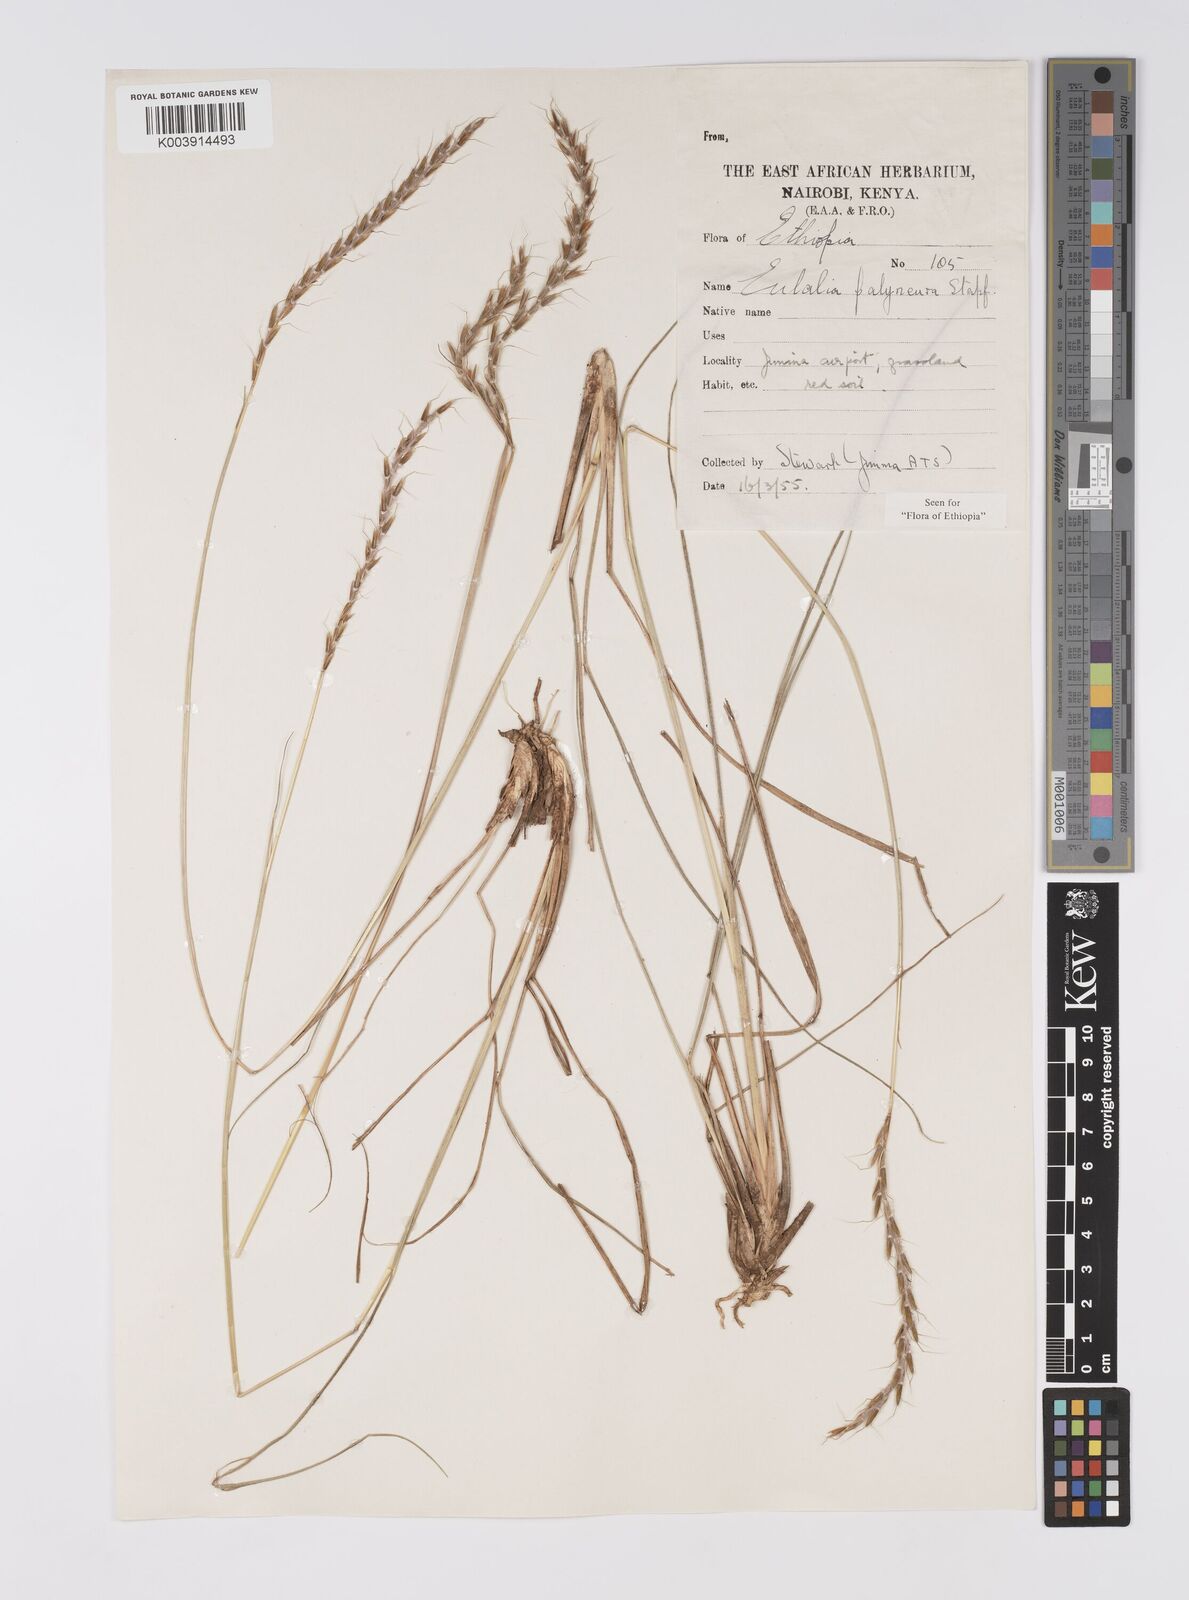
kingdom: Plantae
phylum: Tracheophyta
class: Liliopsida
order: Poales
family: Poaceae
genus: Eulalia
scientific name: Eulalia polyneura
